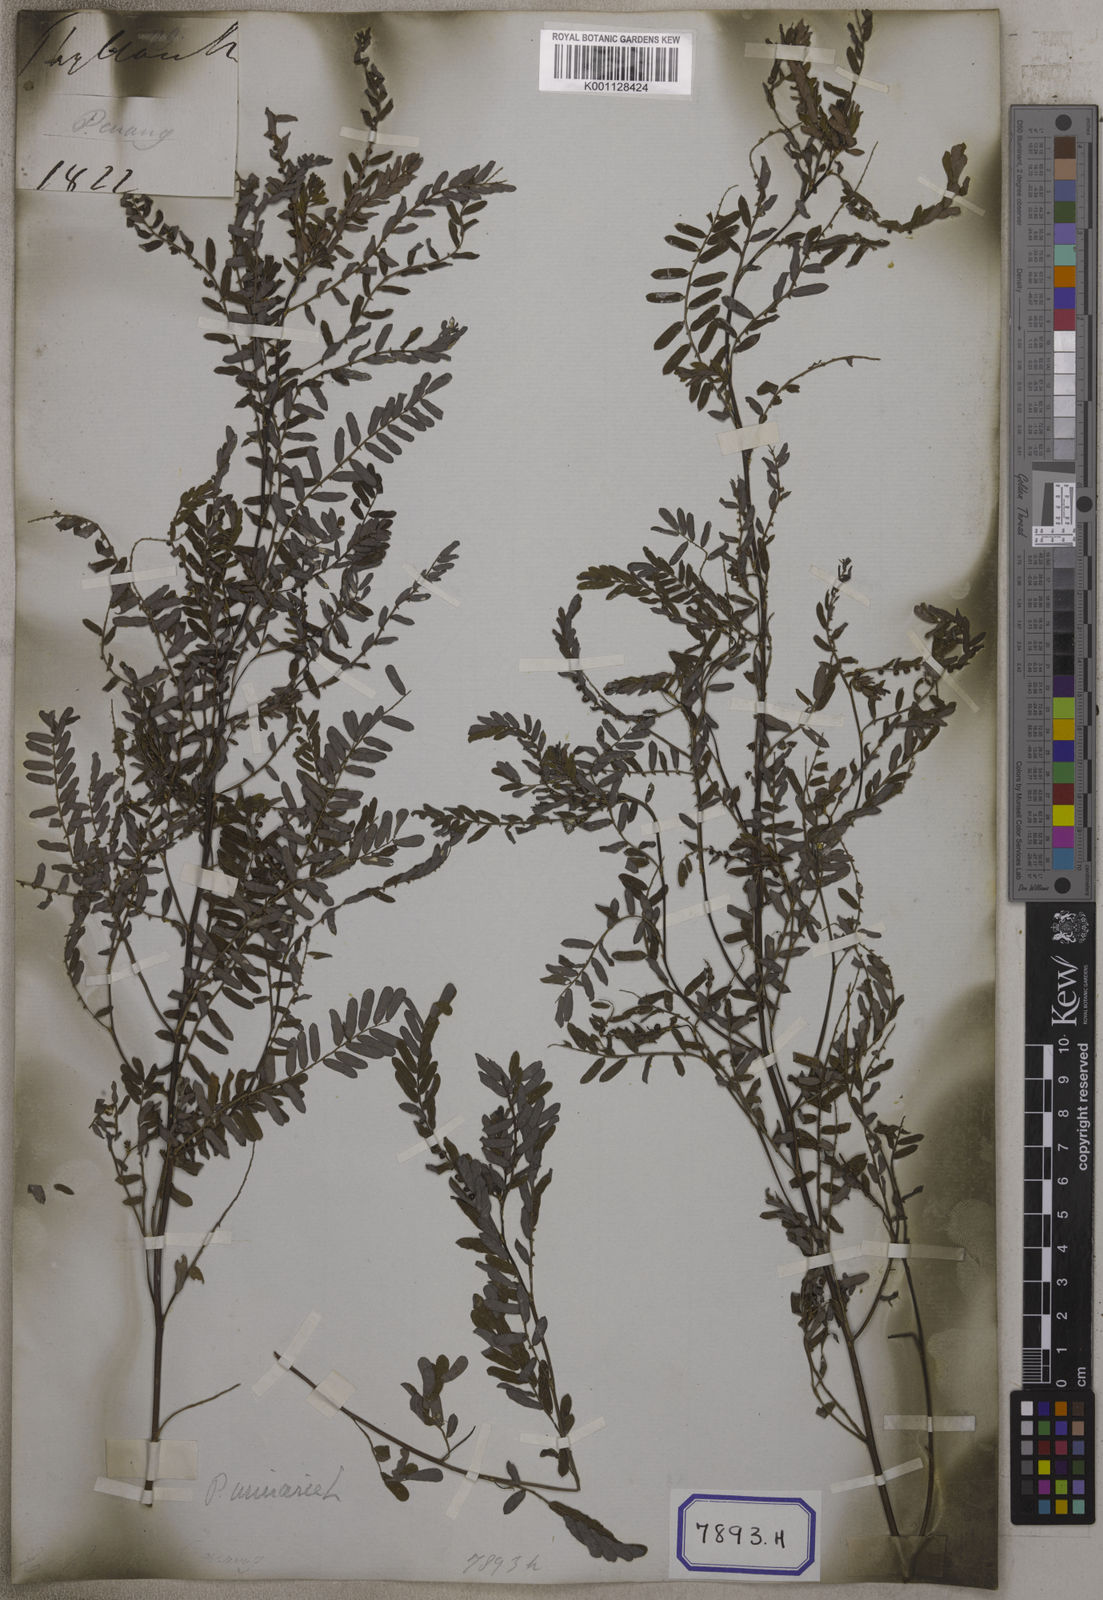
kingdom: Plantae
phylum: Tracheophyta
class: Magnoliopsida
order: Malpighiales
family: Euphorbiaceae
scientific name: Euphorbiaceae
